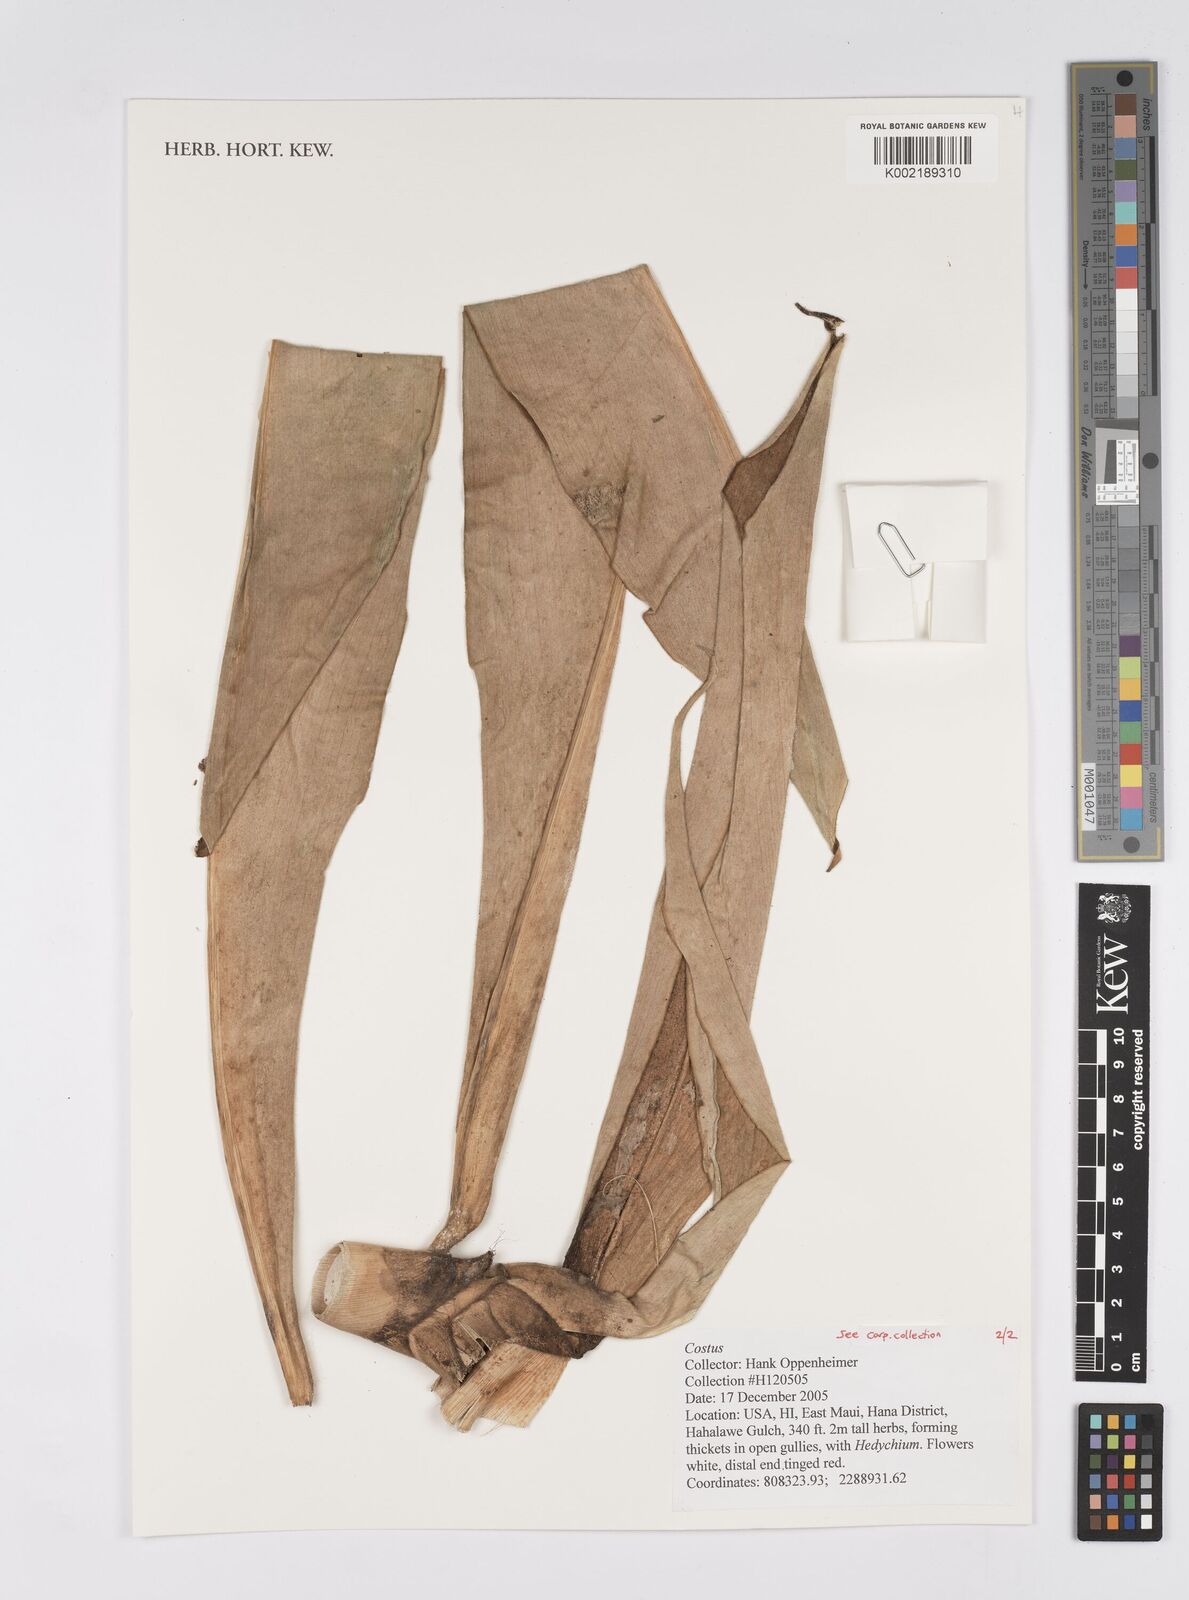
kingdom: Plantae
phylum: Tracheophyta
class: Liliopsida
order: Zingiberales
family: Costaceae
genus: Costus
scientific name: Costus
